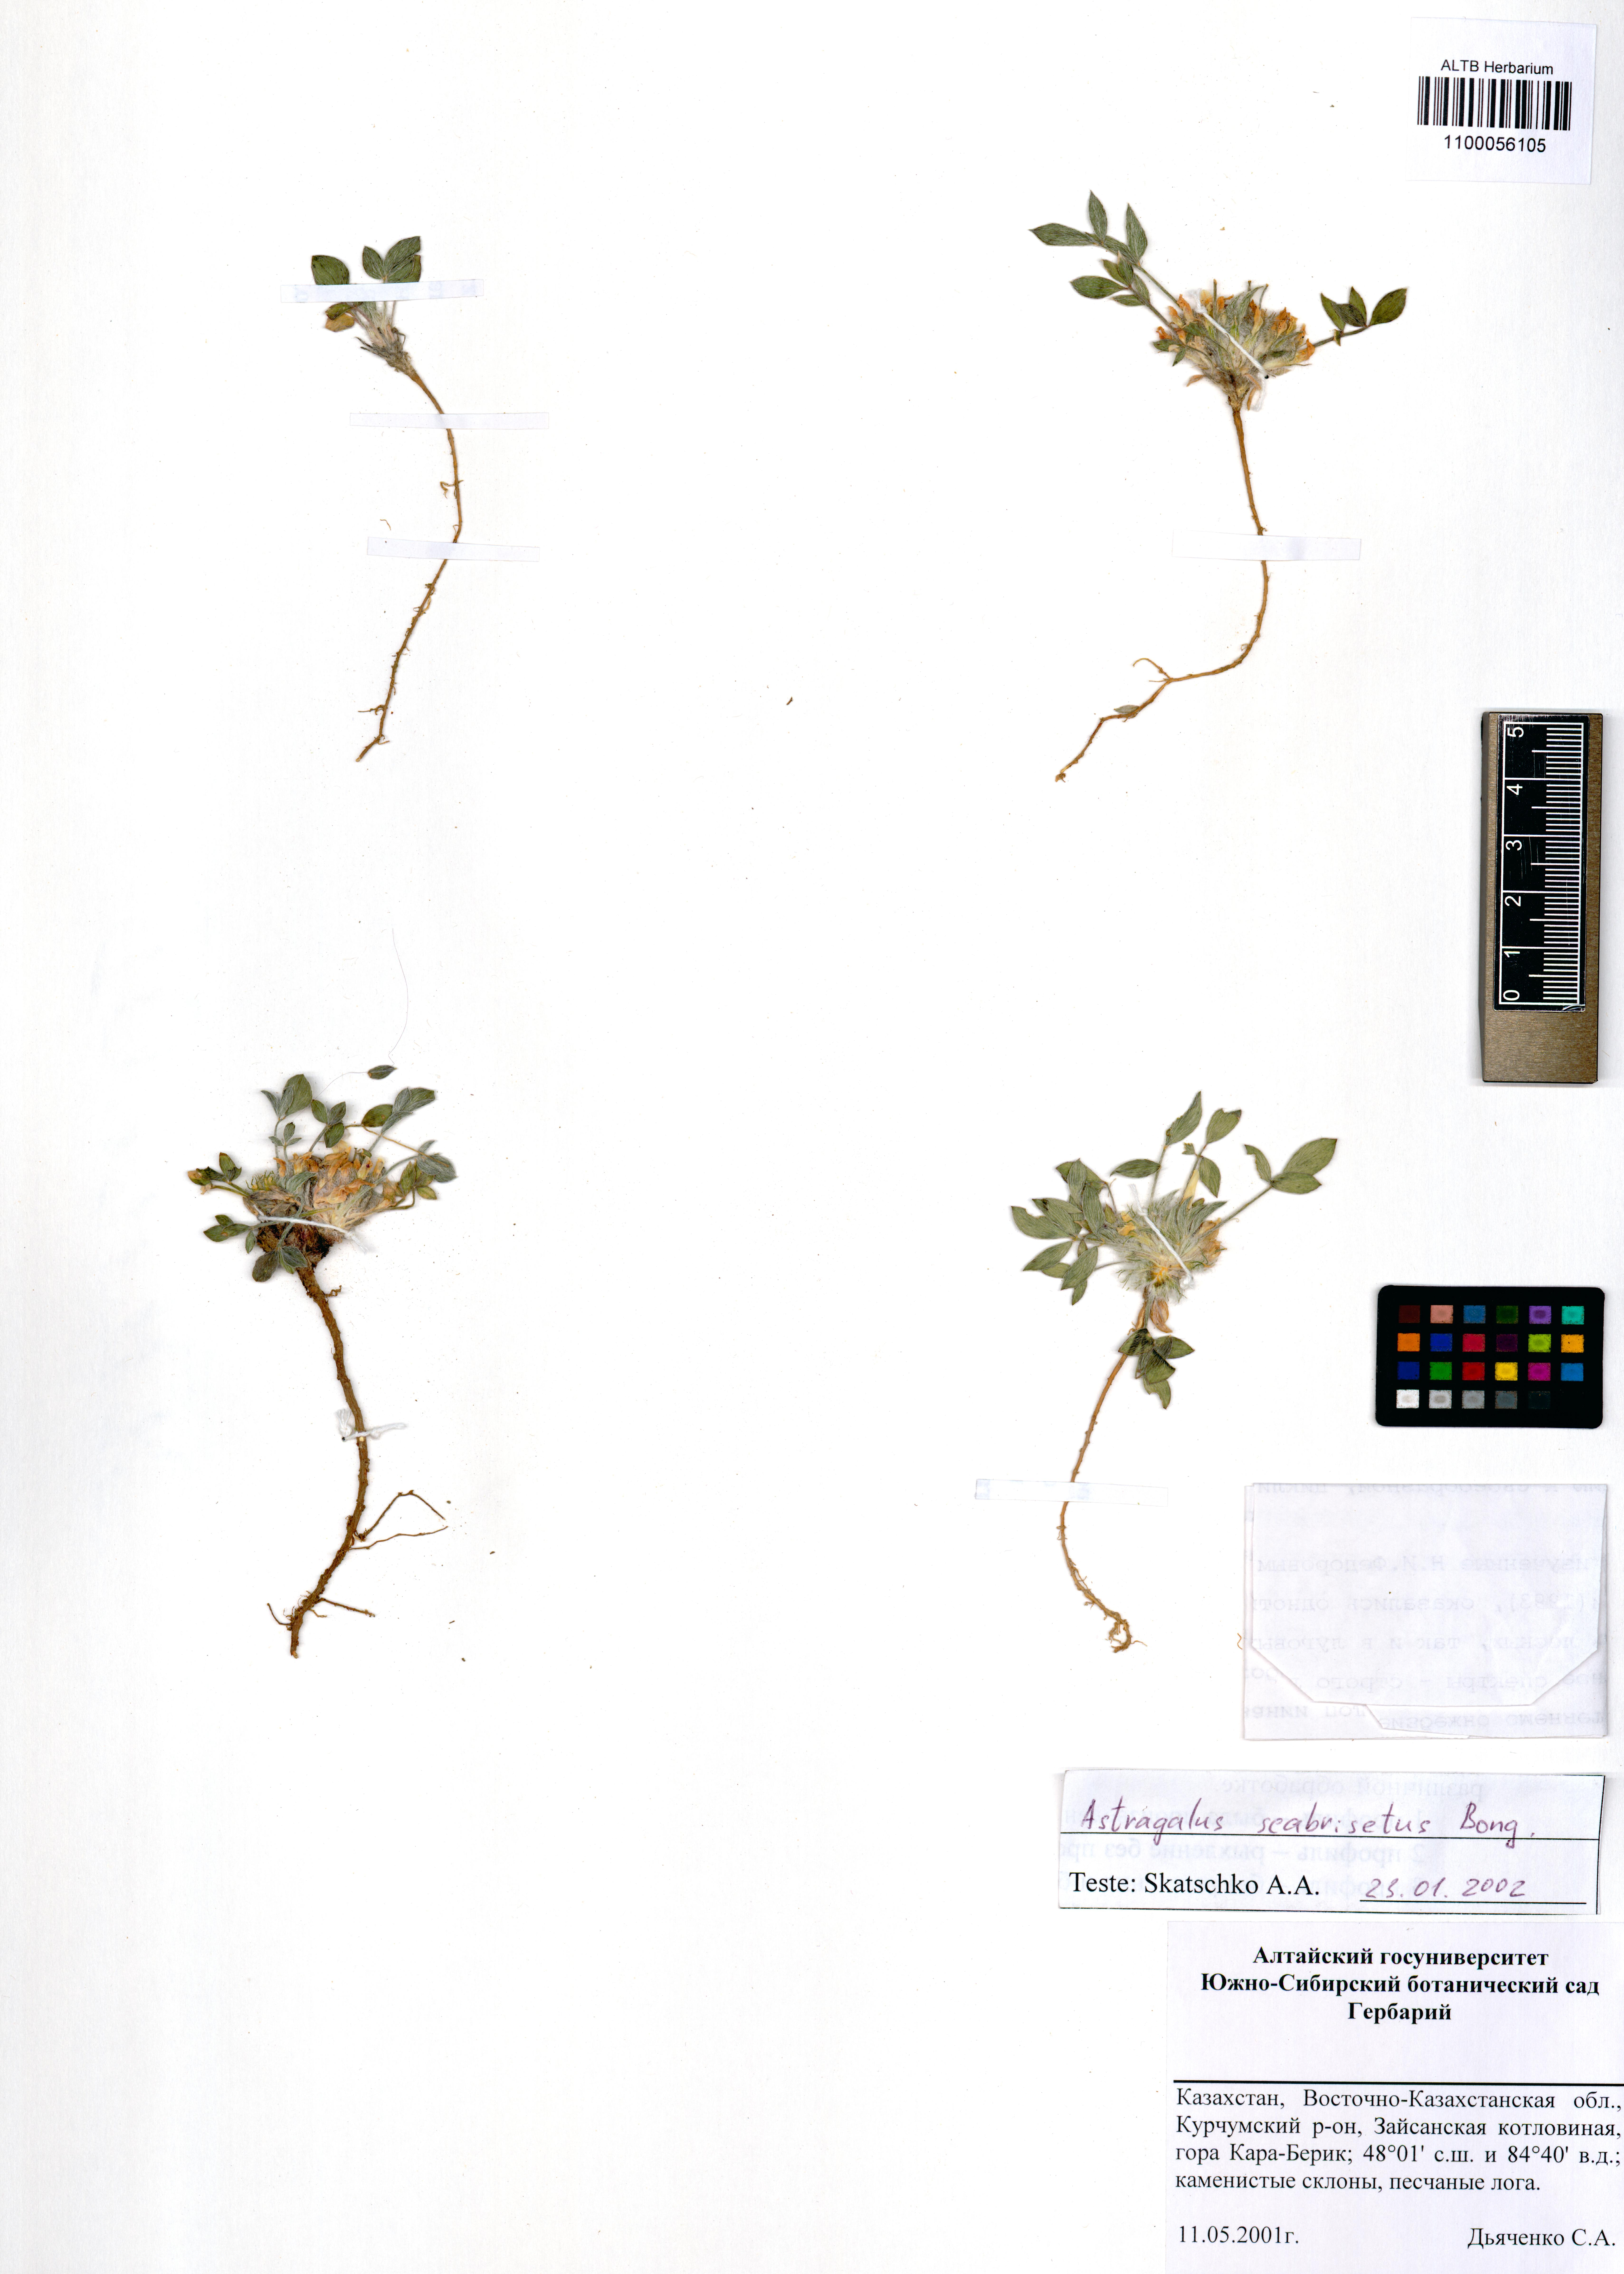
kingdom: Plantae
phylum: Tracheophyta
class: Magnoliopsida
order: Fabales
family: Fabaceae
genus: Astragalus
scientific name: Astragalus scabrisetus
